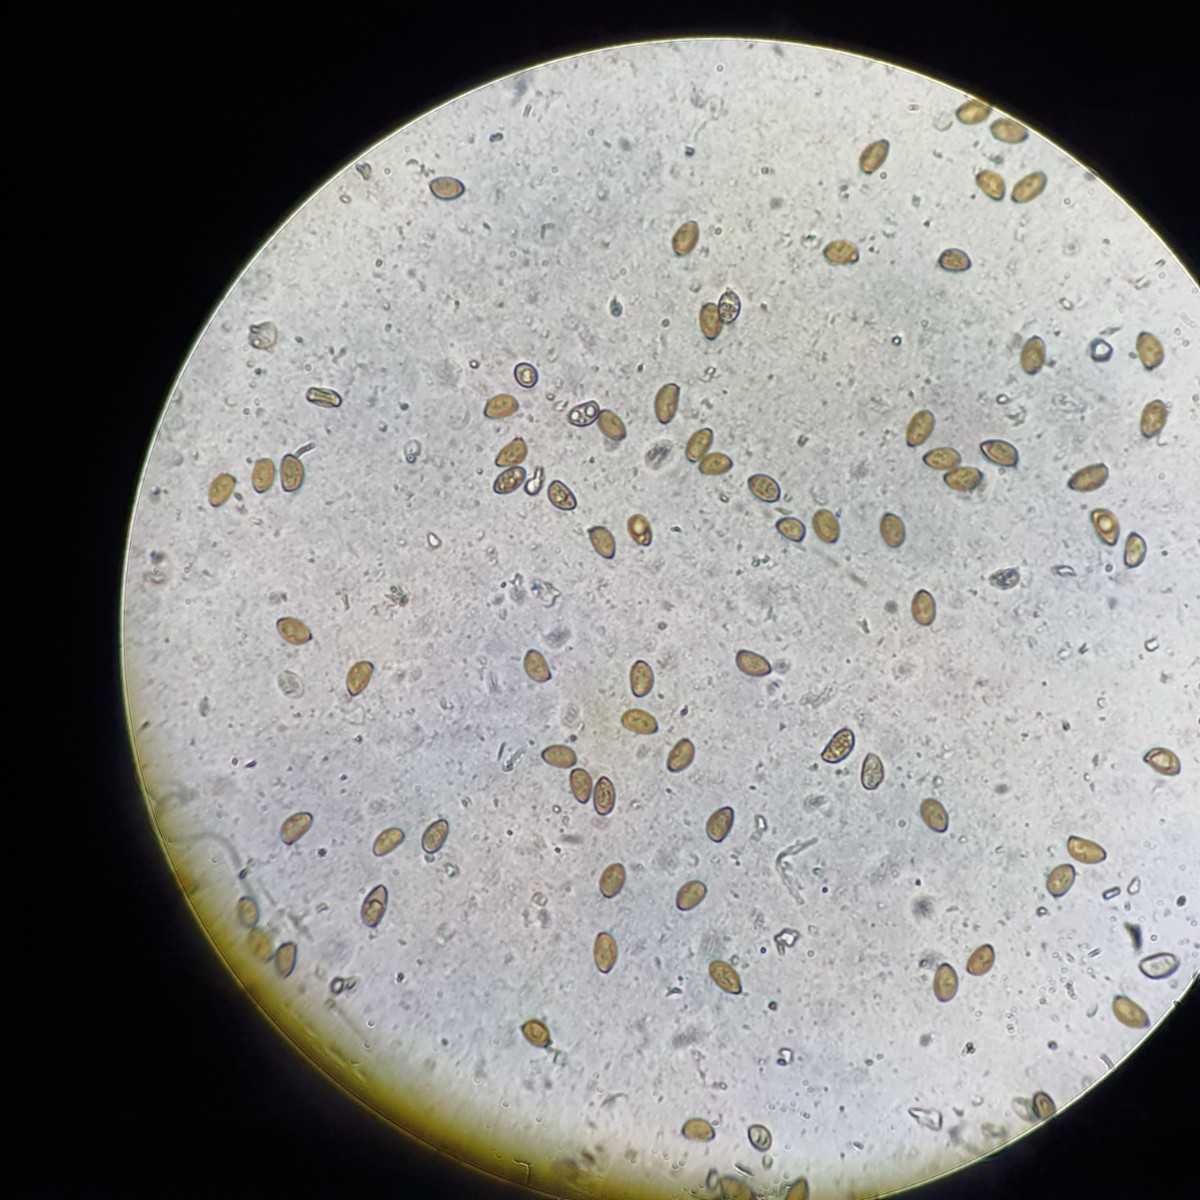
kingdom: Fungi
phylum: Basidiomycota
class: Agaricomycetes
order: Agaricales
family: Inocybaceae
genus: Inocybe
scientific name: Inocybe psammobrunnea
